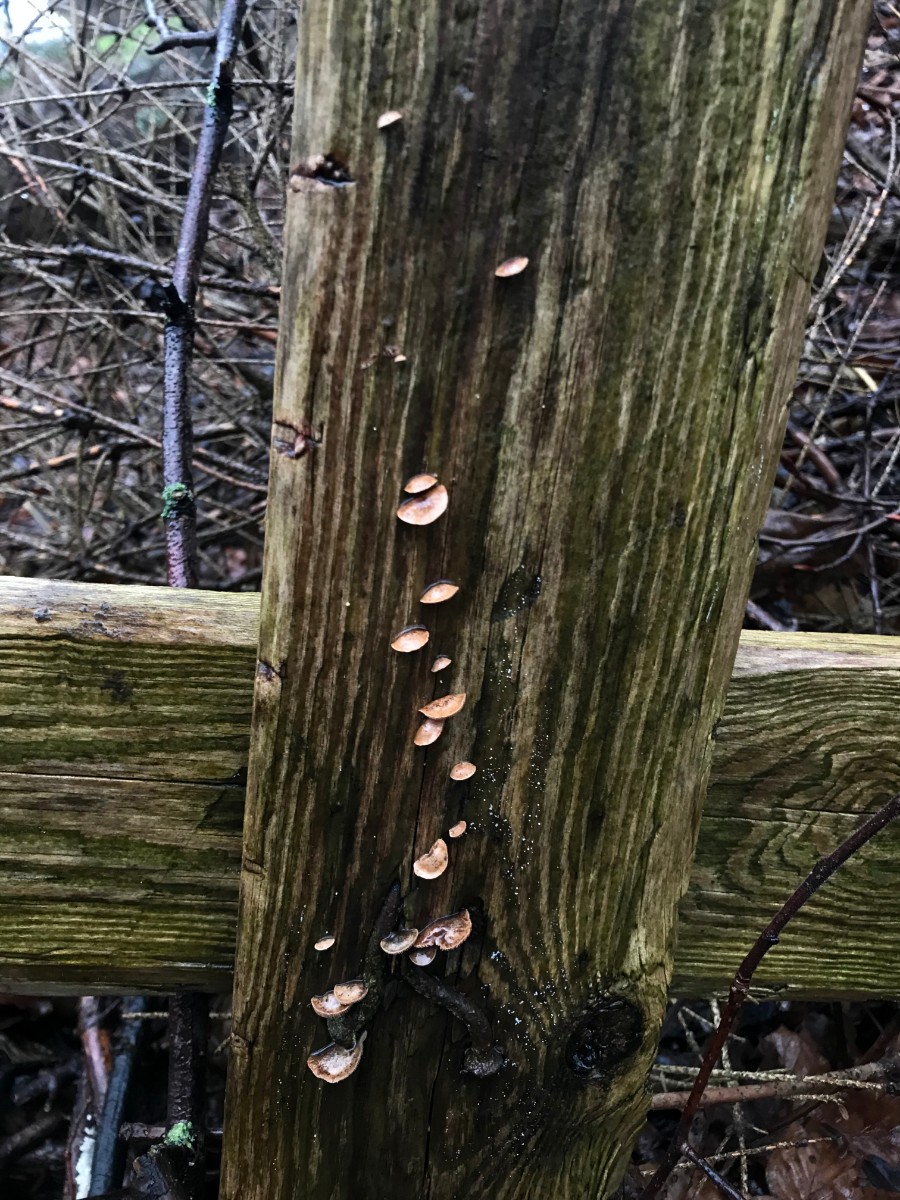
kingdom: Fungi
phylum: Basidiomycota
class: Agaricomycetes
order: Agaricales
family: Strophariaceae
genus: Deconica
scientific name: Deconica horizontalis
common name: ved-stråhat
